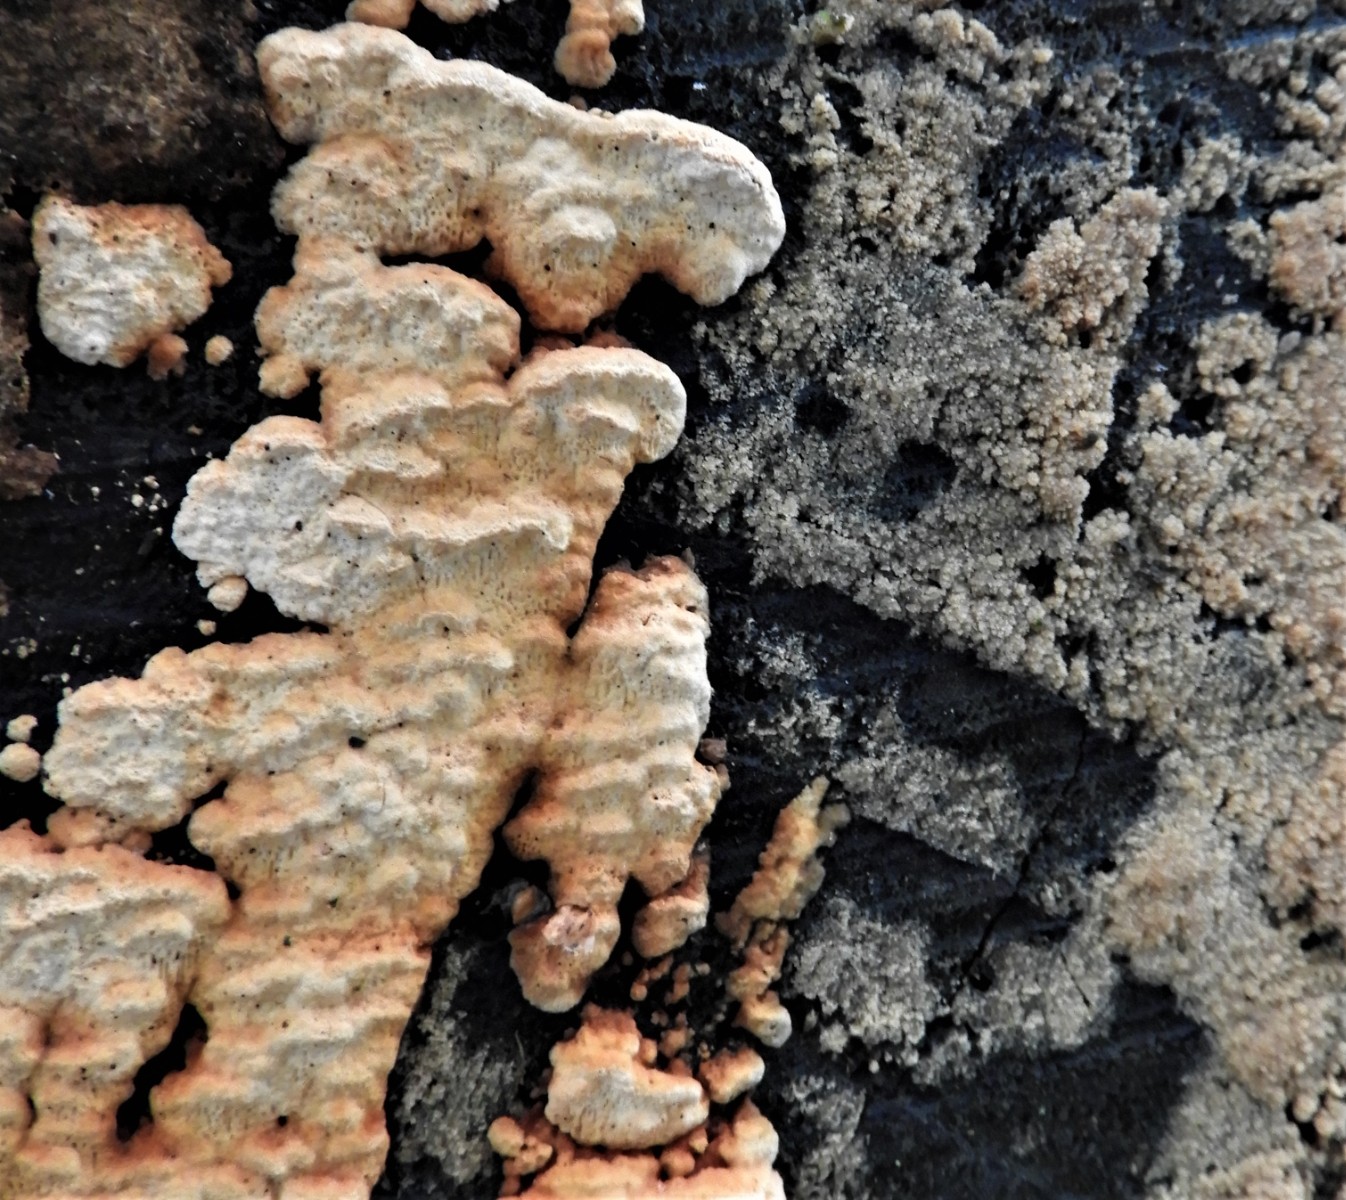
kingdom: Fungi
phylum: Basidiomycota
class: Agaricomycetes
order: Polyporales
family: Fomitopsidaceae
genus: Neoantrodia
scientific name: Neoantrodia serialis
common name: række-sejporesvamp
